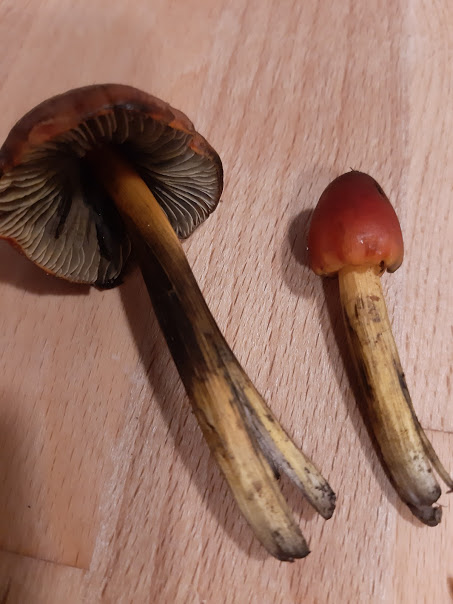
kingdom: Fungi
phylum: Basidiomycota
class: Agaricomycetes
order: Agaricales
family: Hygrophoraceae
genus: Hygrocybe
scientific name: Hygrocybe conica
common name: kegle-vokshat
